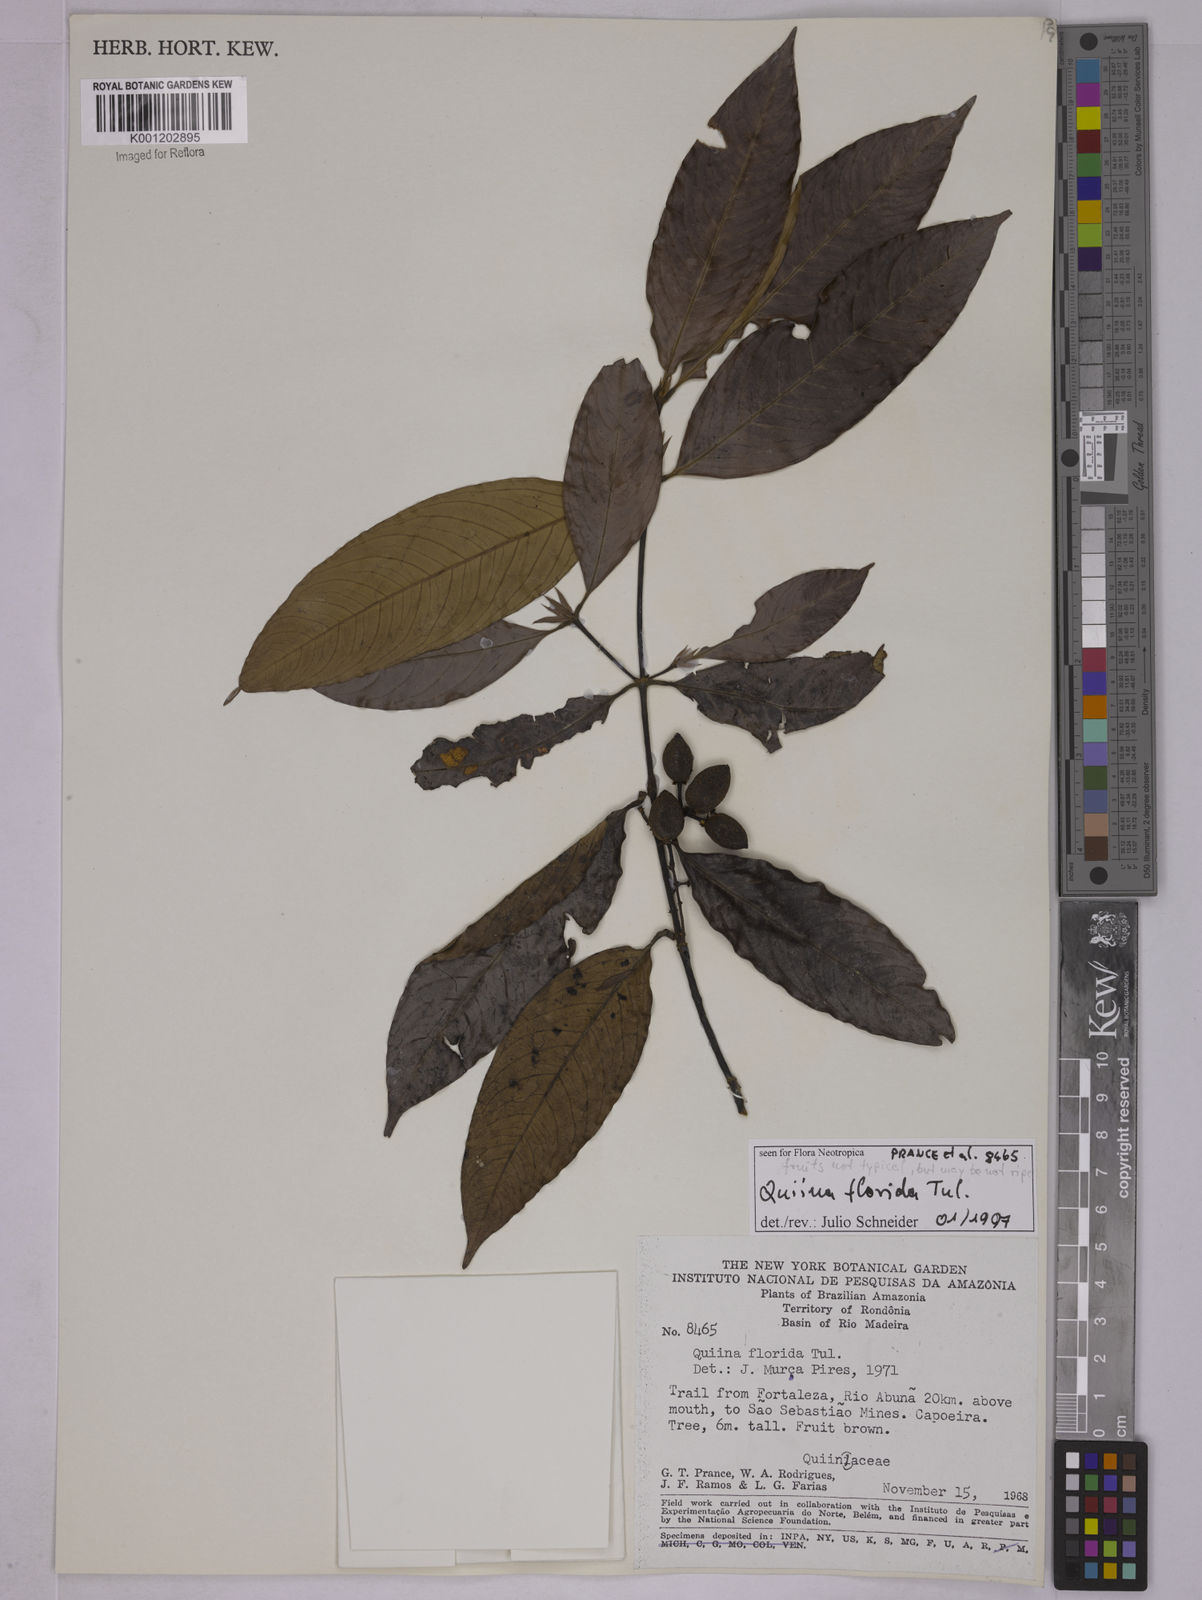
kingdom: Plantae
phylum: Tracheophyta
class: Magnoliopsida
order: Malpighiales
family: Quiinaceae
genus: Quiina
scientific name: Quiina florida
